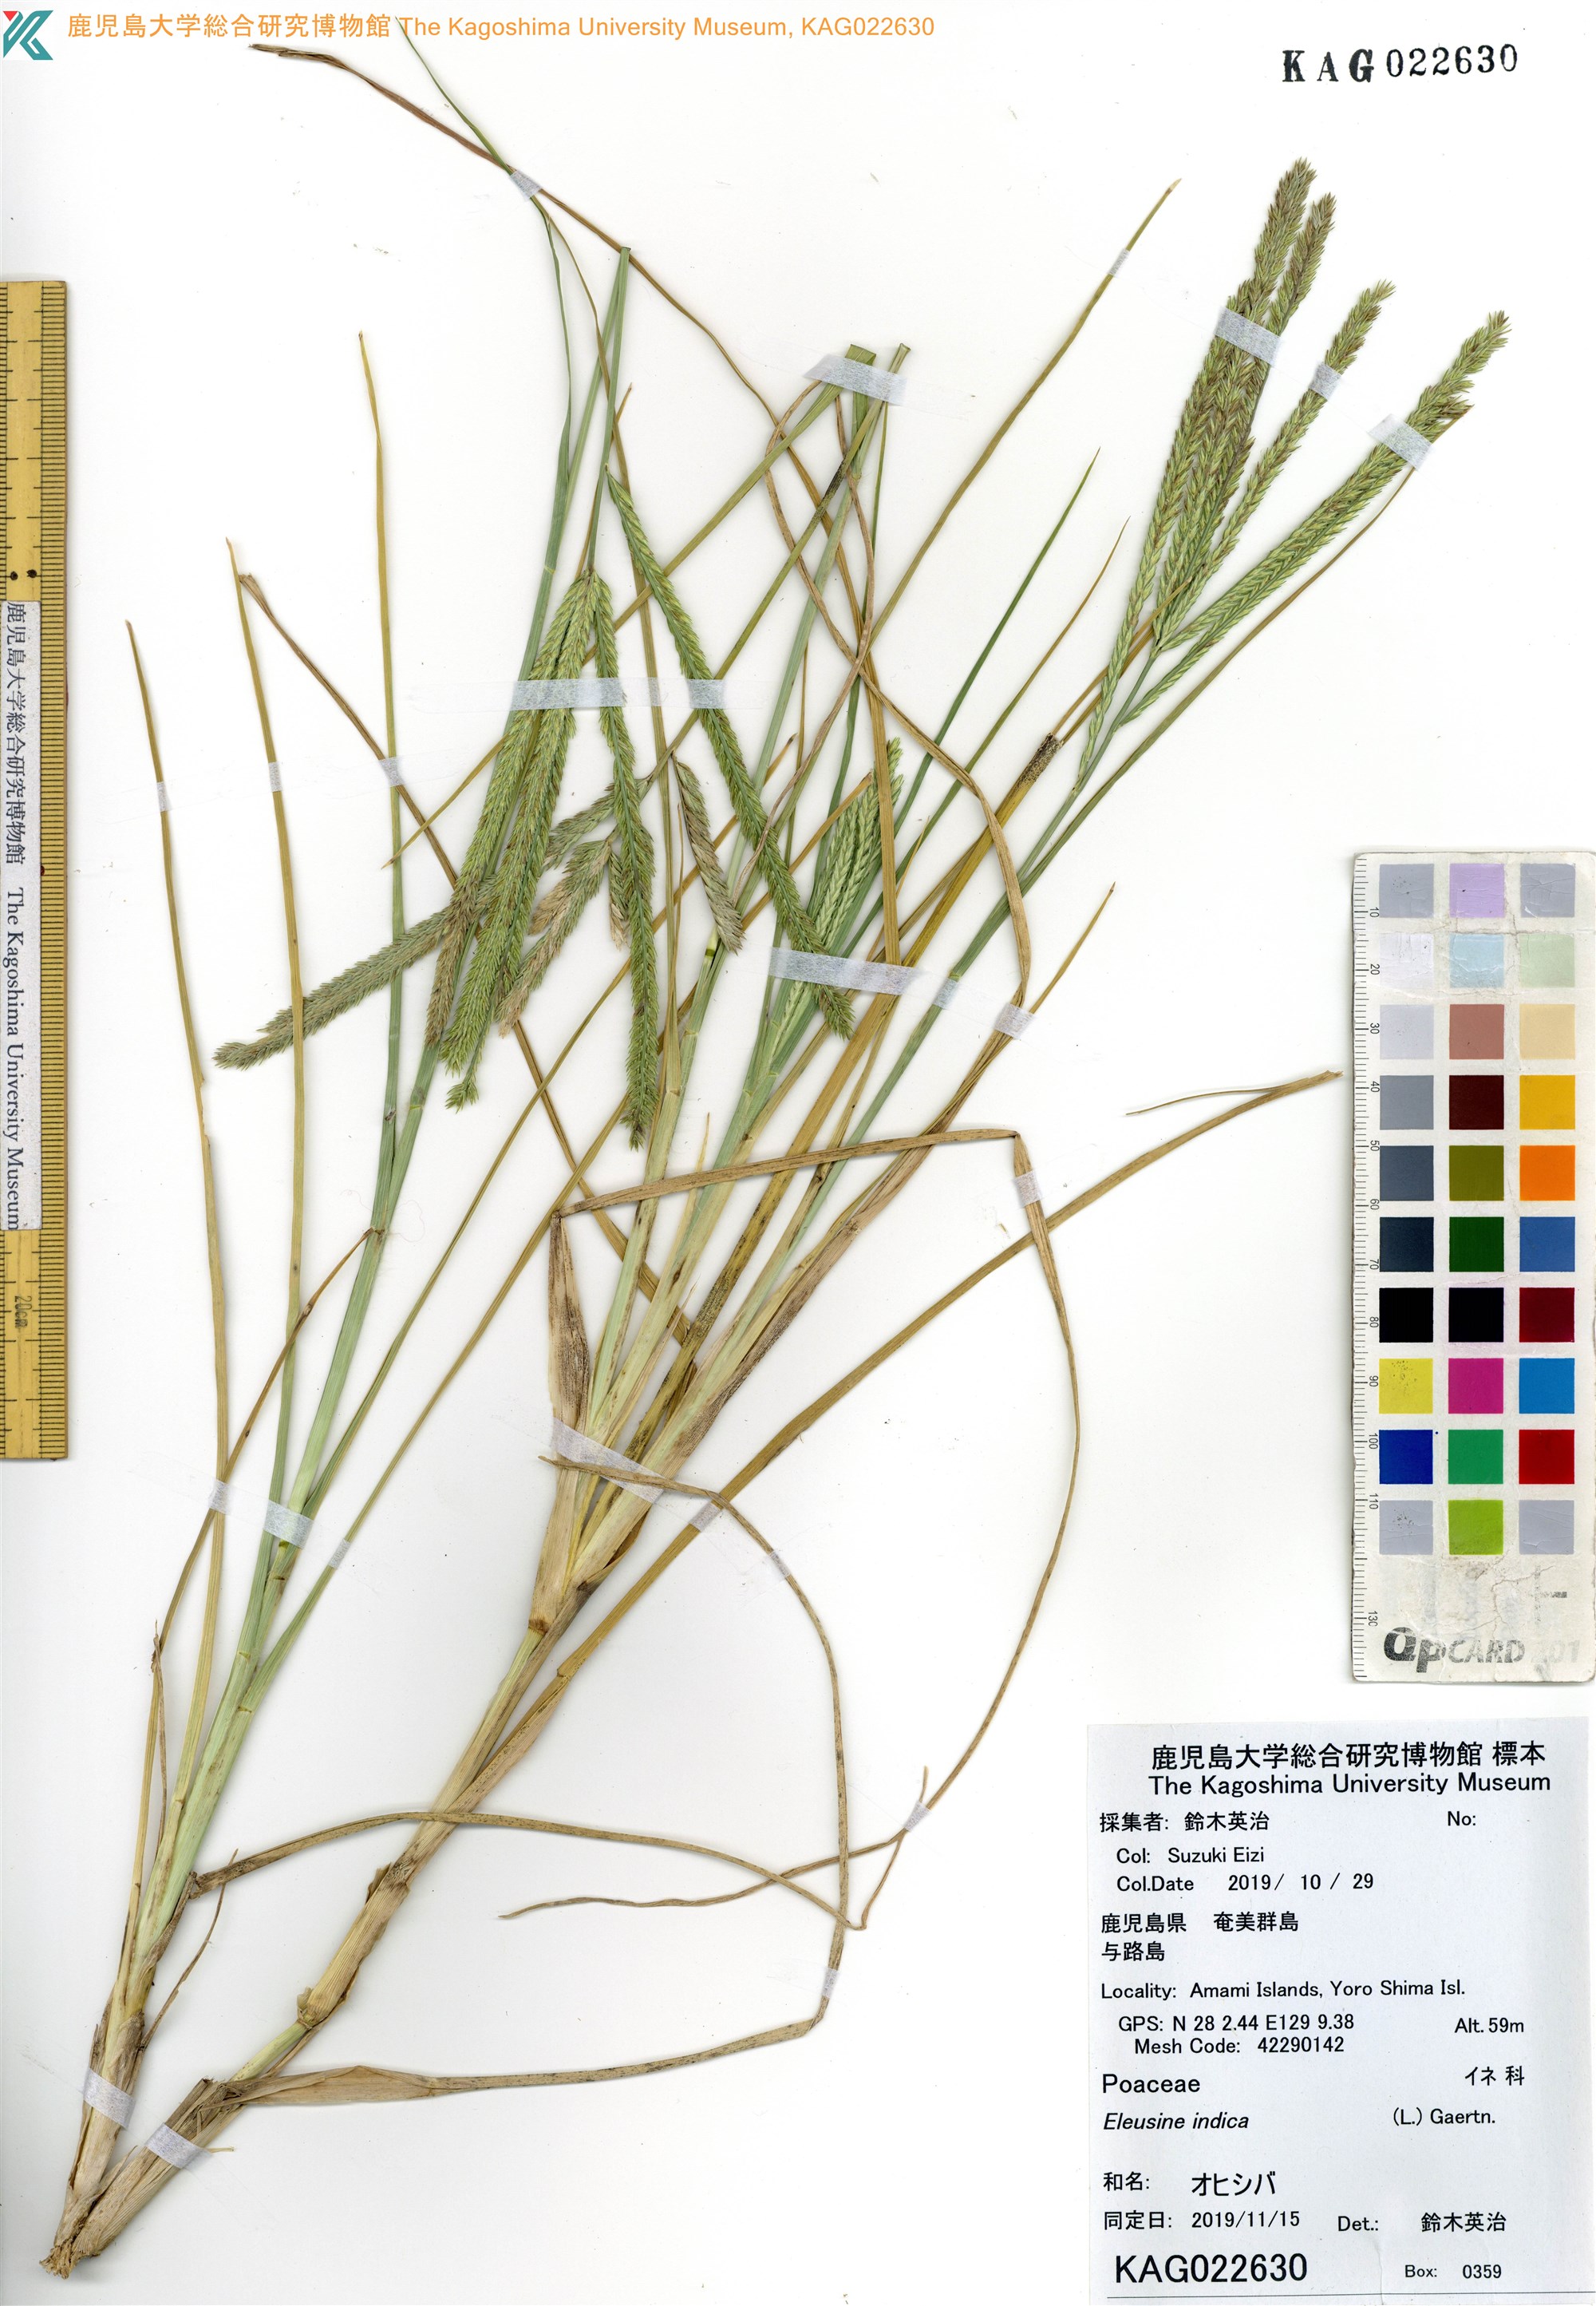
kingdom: Plantae
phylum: Tracheophyta
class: Liliopsida
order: Poales
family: Poaceae
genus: Eleusine
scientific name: Eleusine indica
